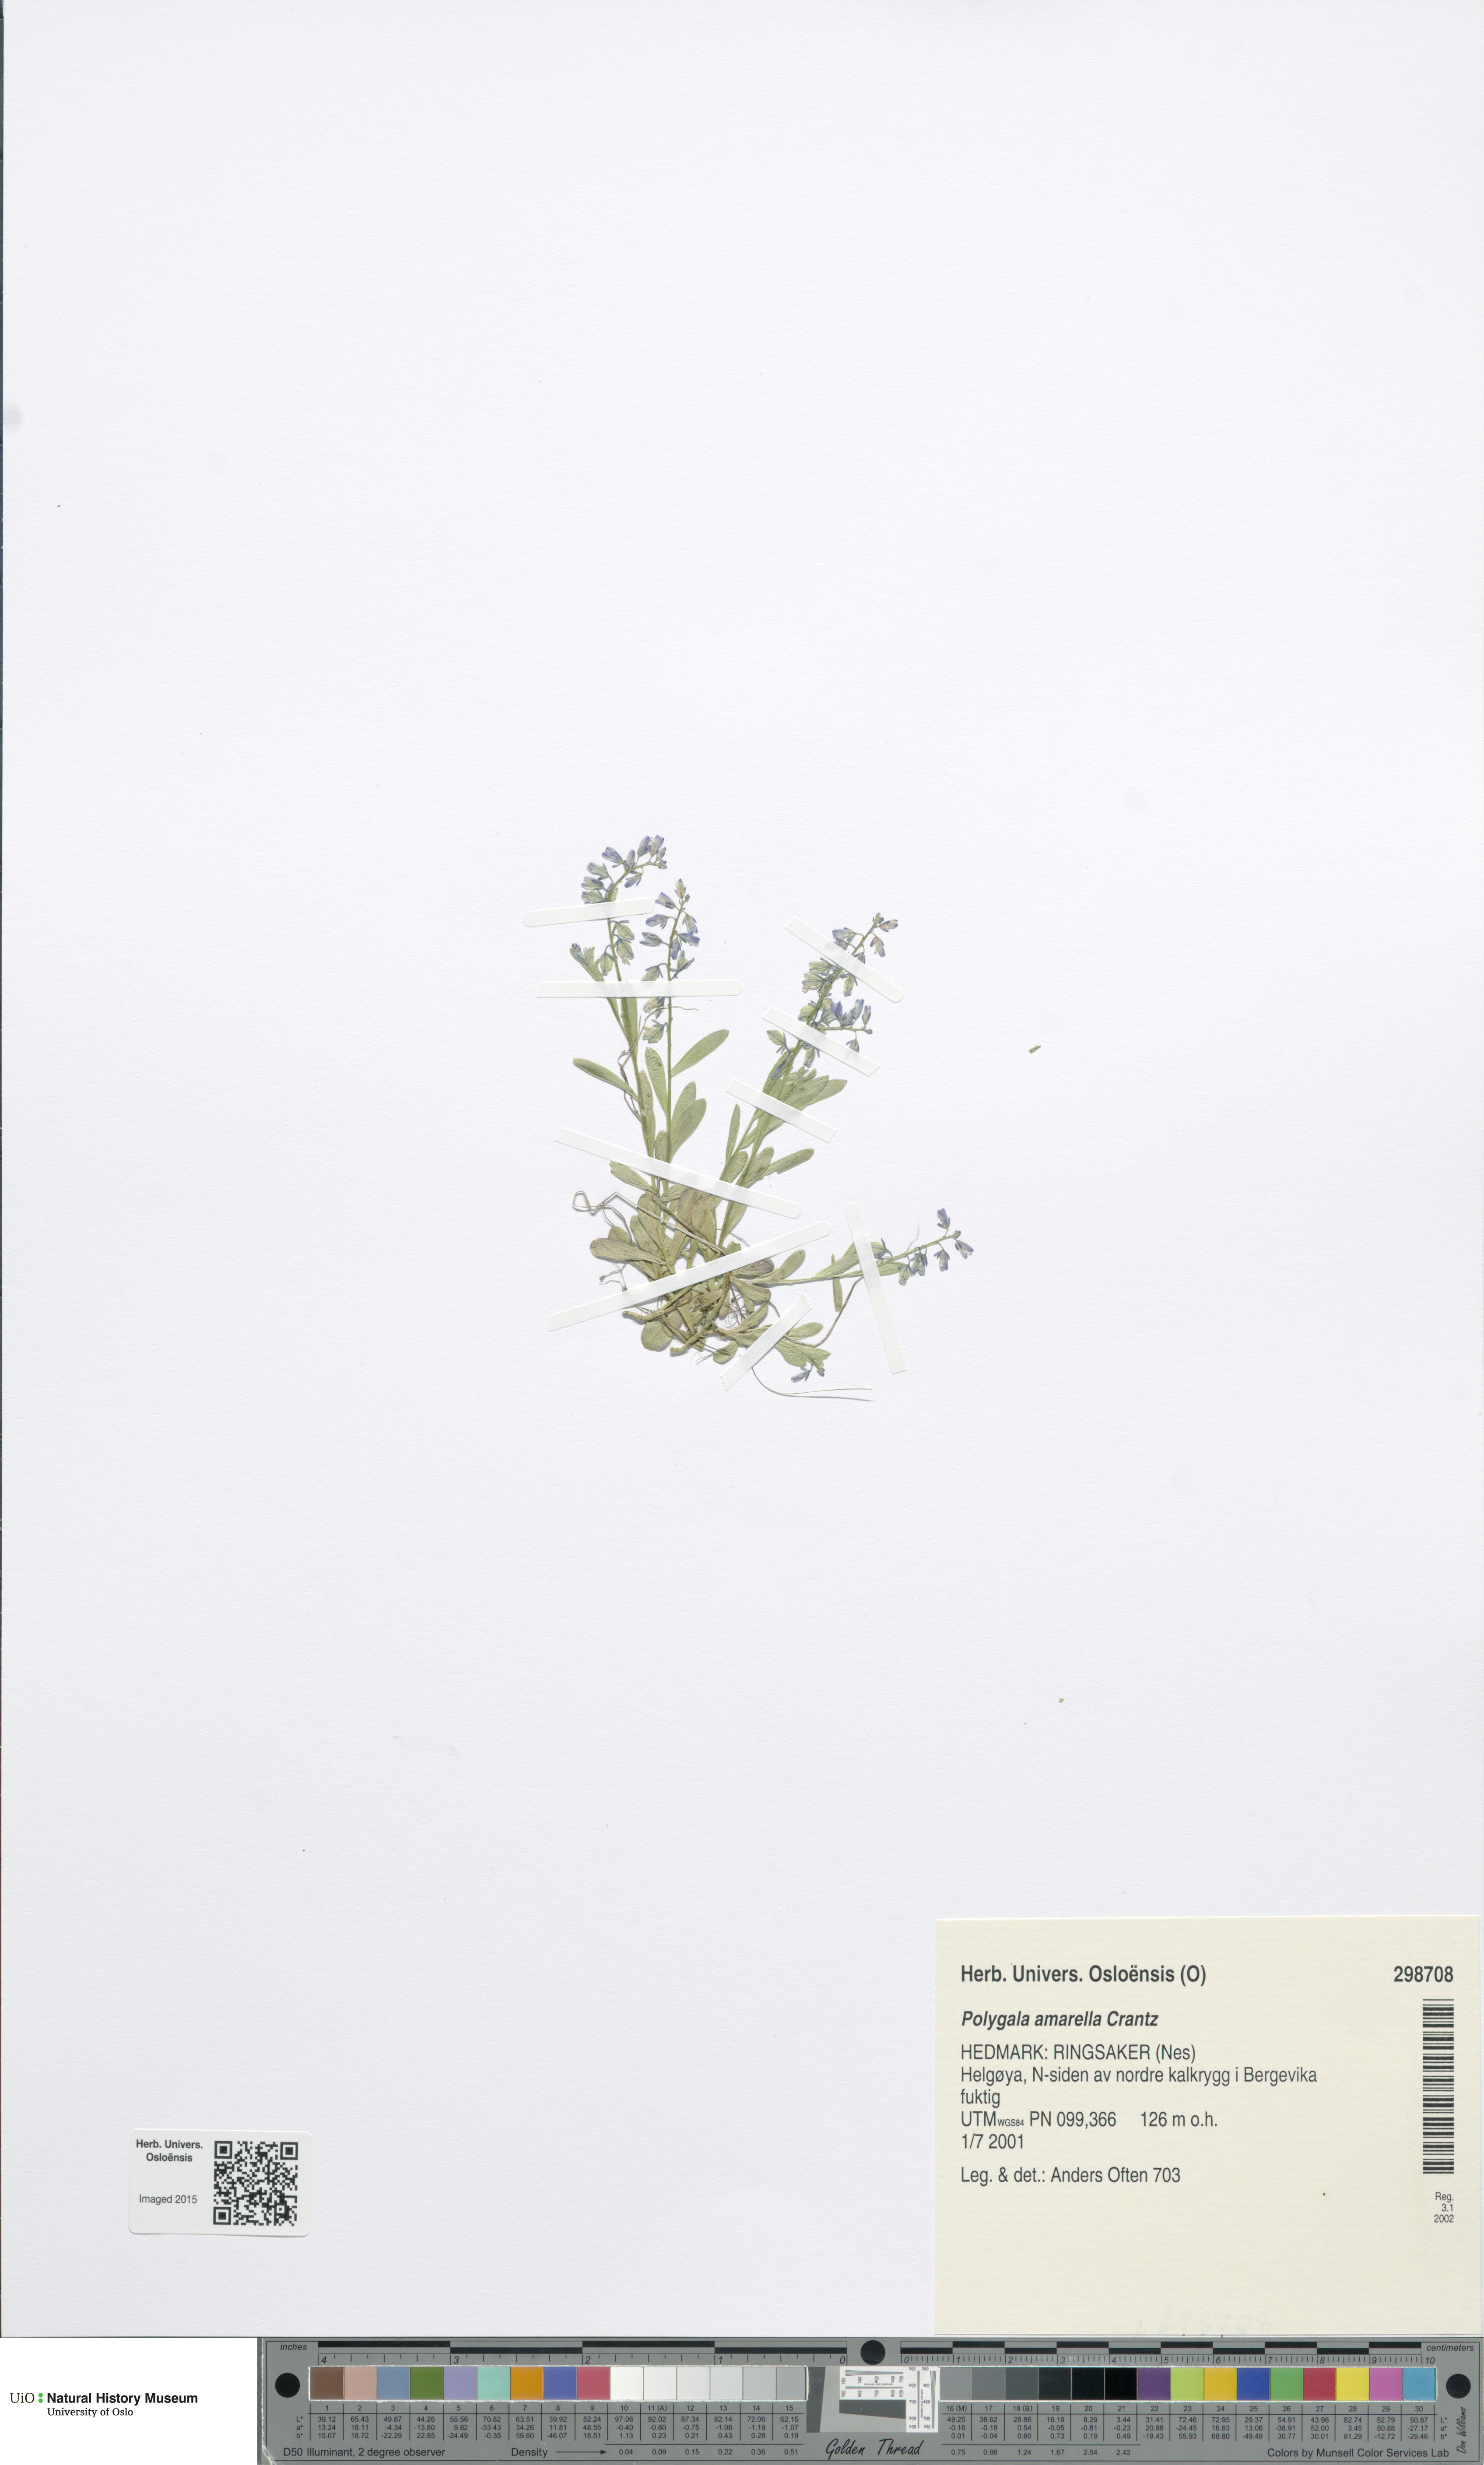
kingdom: Plantae
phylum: Tracheophyta
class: Magnoliopsida
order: Fabales
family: Polygalaceae
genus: Polygala
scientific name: Polygala amarella
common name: Dwarf milkwort
